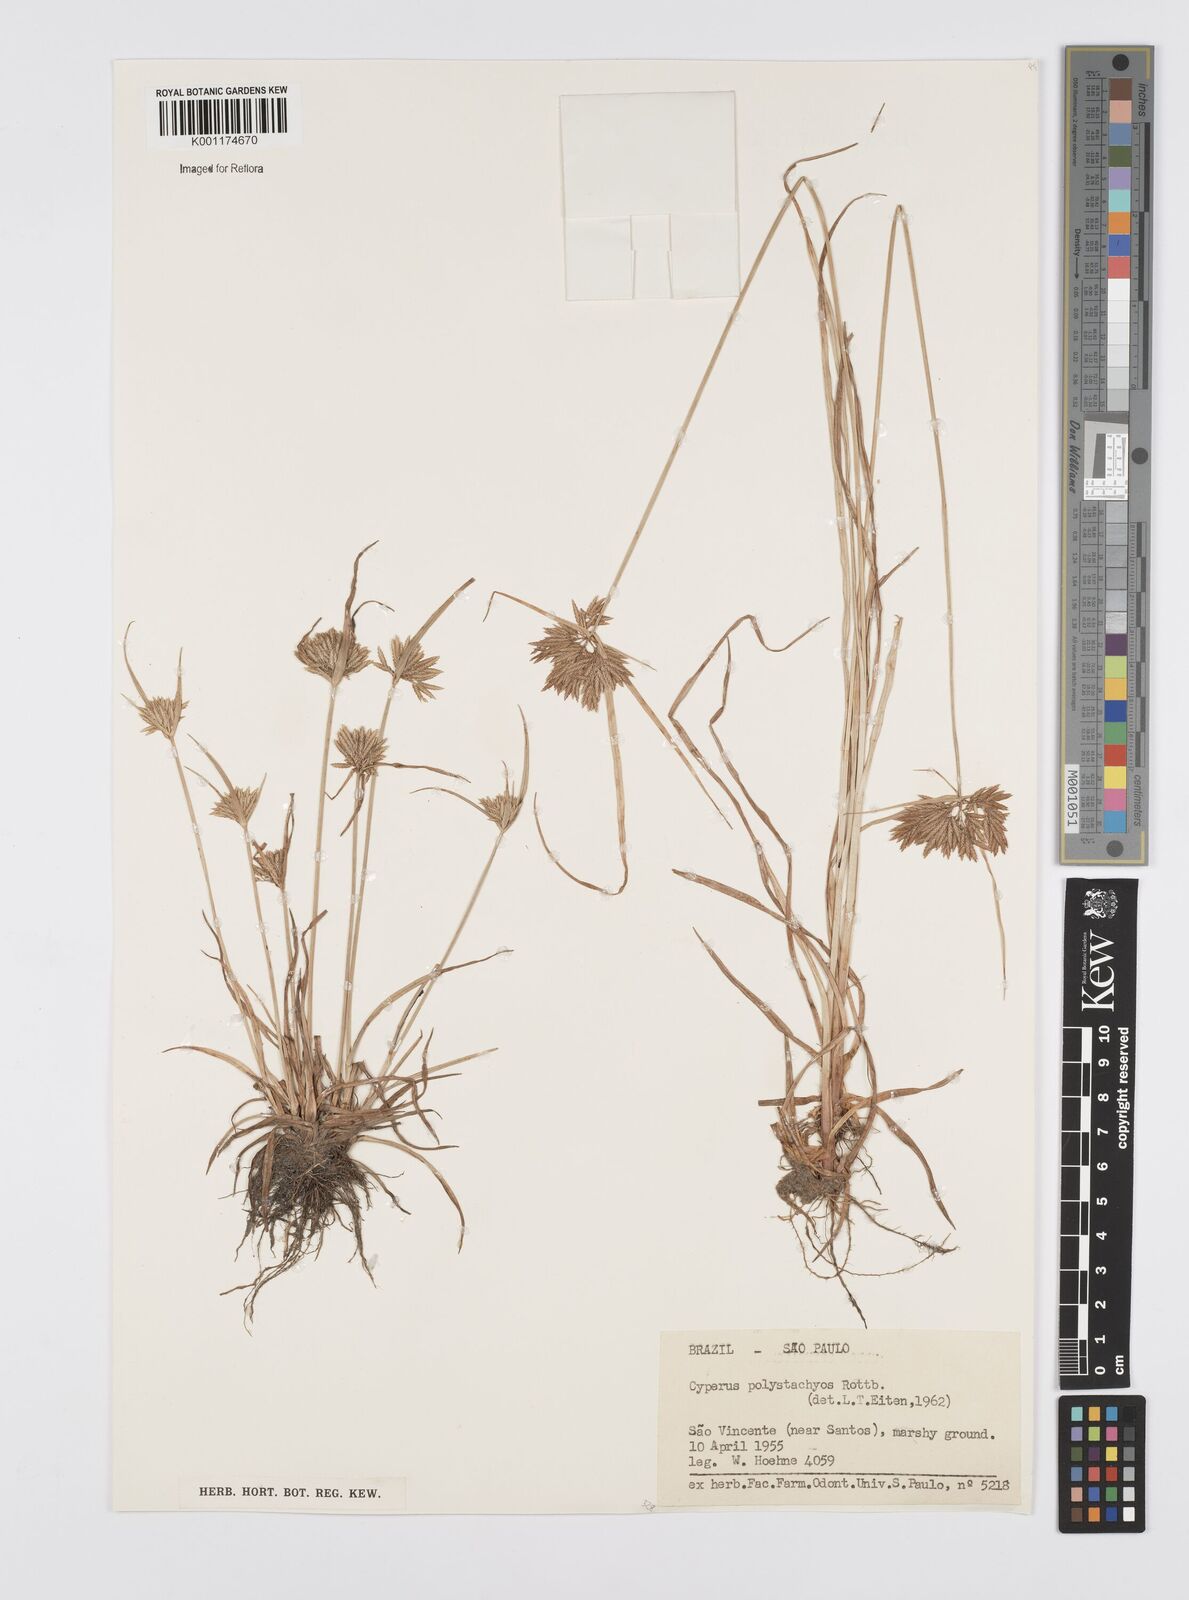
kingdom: Plantae
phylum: Tracheophyta
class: Liliopsida
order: Poales
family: Cyperaceae
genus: Cyperus
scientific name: Cyperus polystachyos
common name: Bunchy flat sedge
